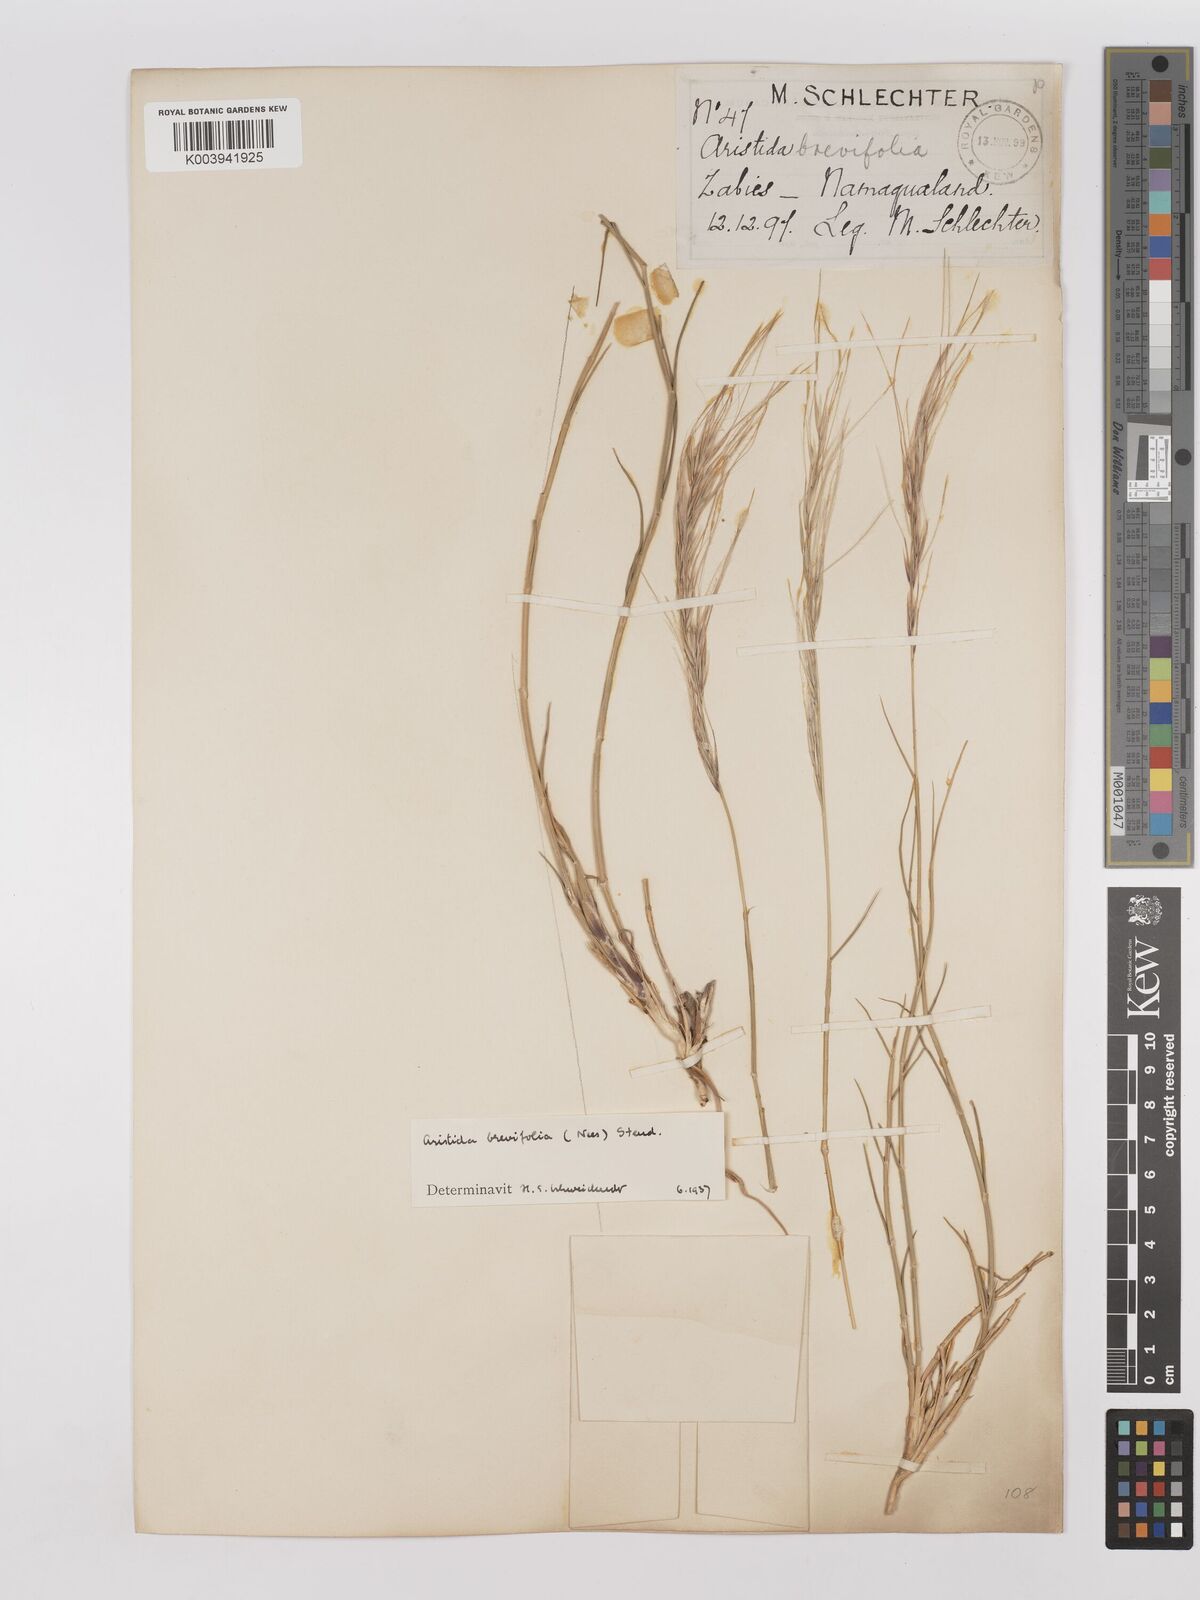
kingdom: Plantae
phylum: Tracheophyta
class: Liliopsida
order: Poales
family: Poaceae
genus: Stipagrostis
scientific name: Stipagrostis brevifolia
